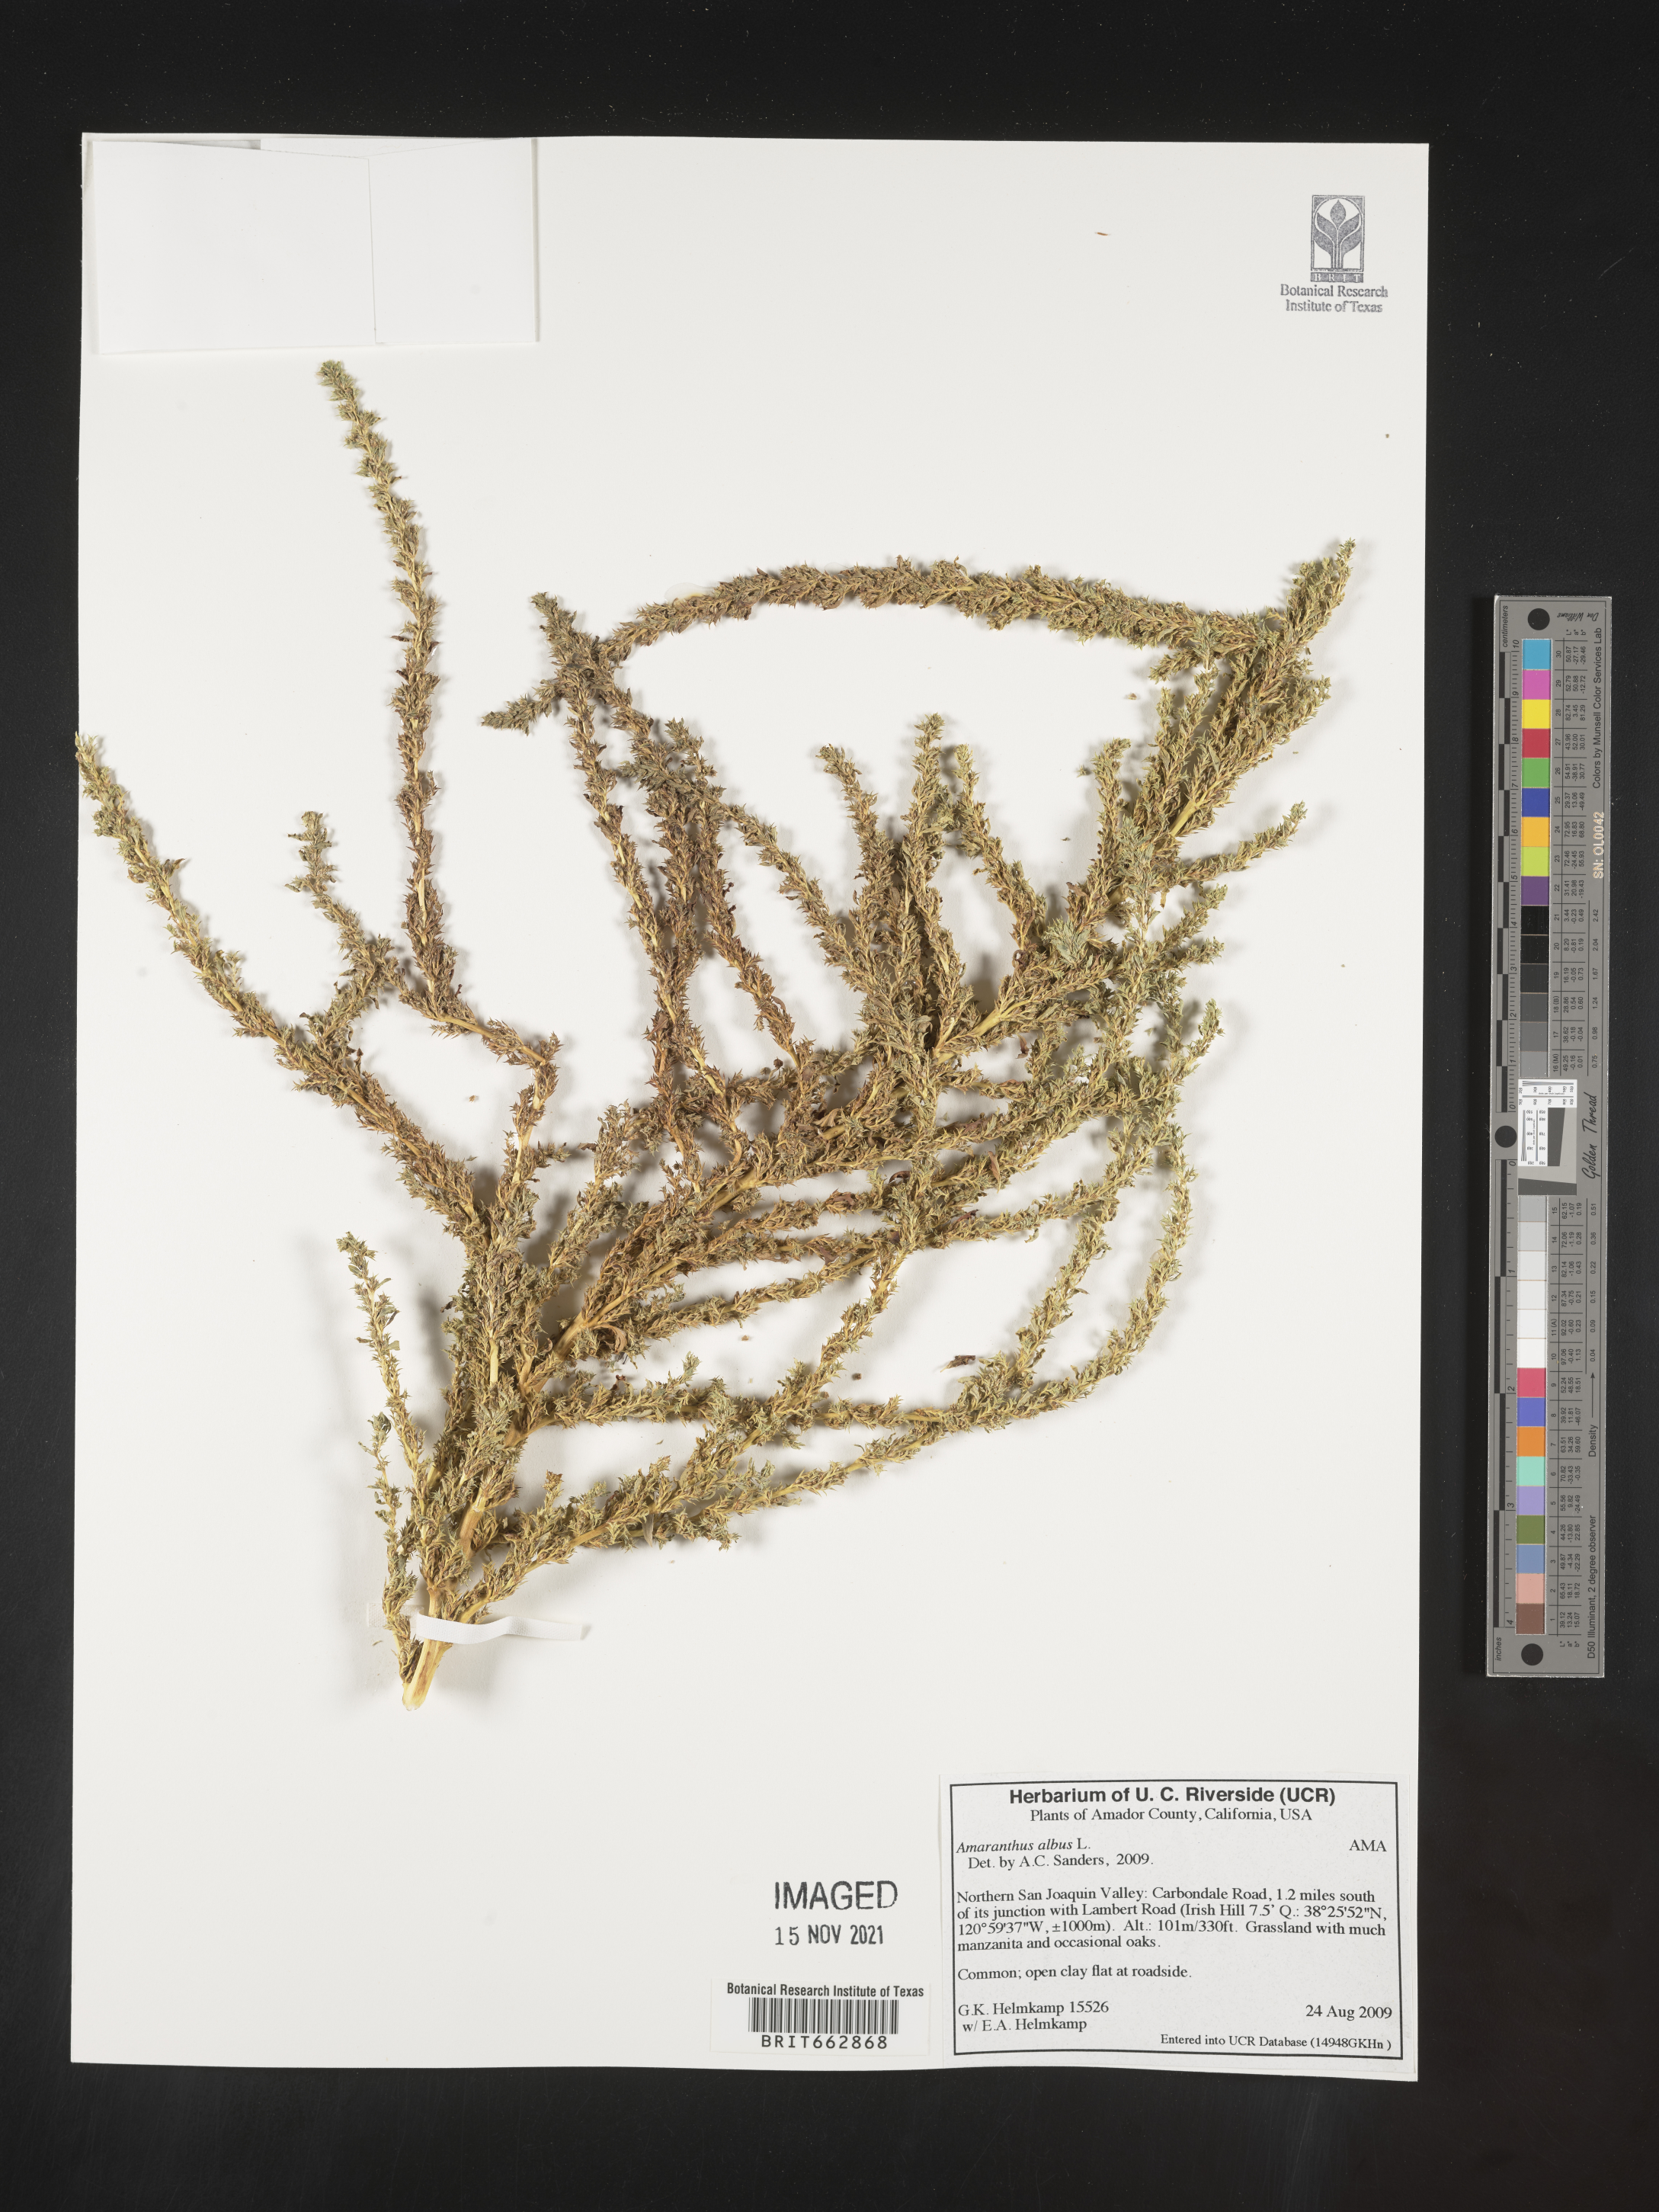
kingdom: Plantae
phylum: Tracheophyta
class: Magnoliopsida
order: Caryophyllales
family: Amaranthaceae
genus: Amaranthus
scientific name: Amaranthus albus
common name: White pigweed
